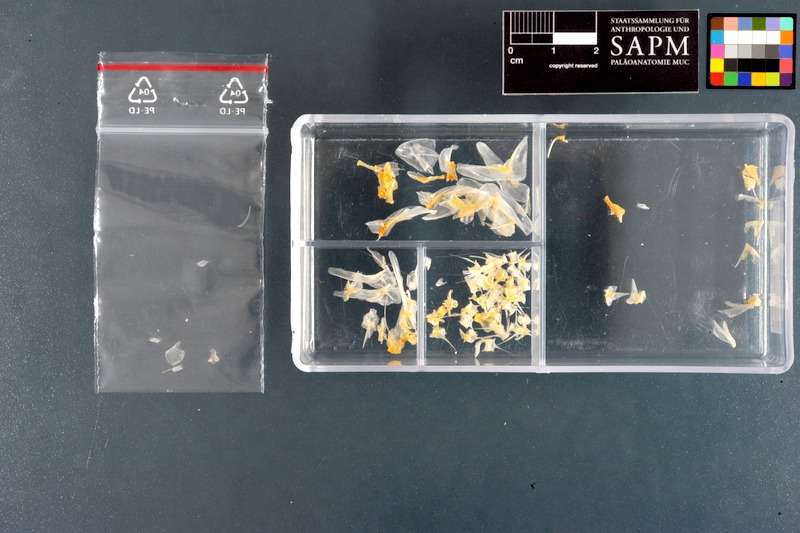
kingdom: Animalia
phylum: Chordata
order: Perciformes
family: Sillaginidae
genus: Sillago
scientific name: Sillago sihama
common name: Silver sillago
